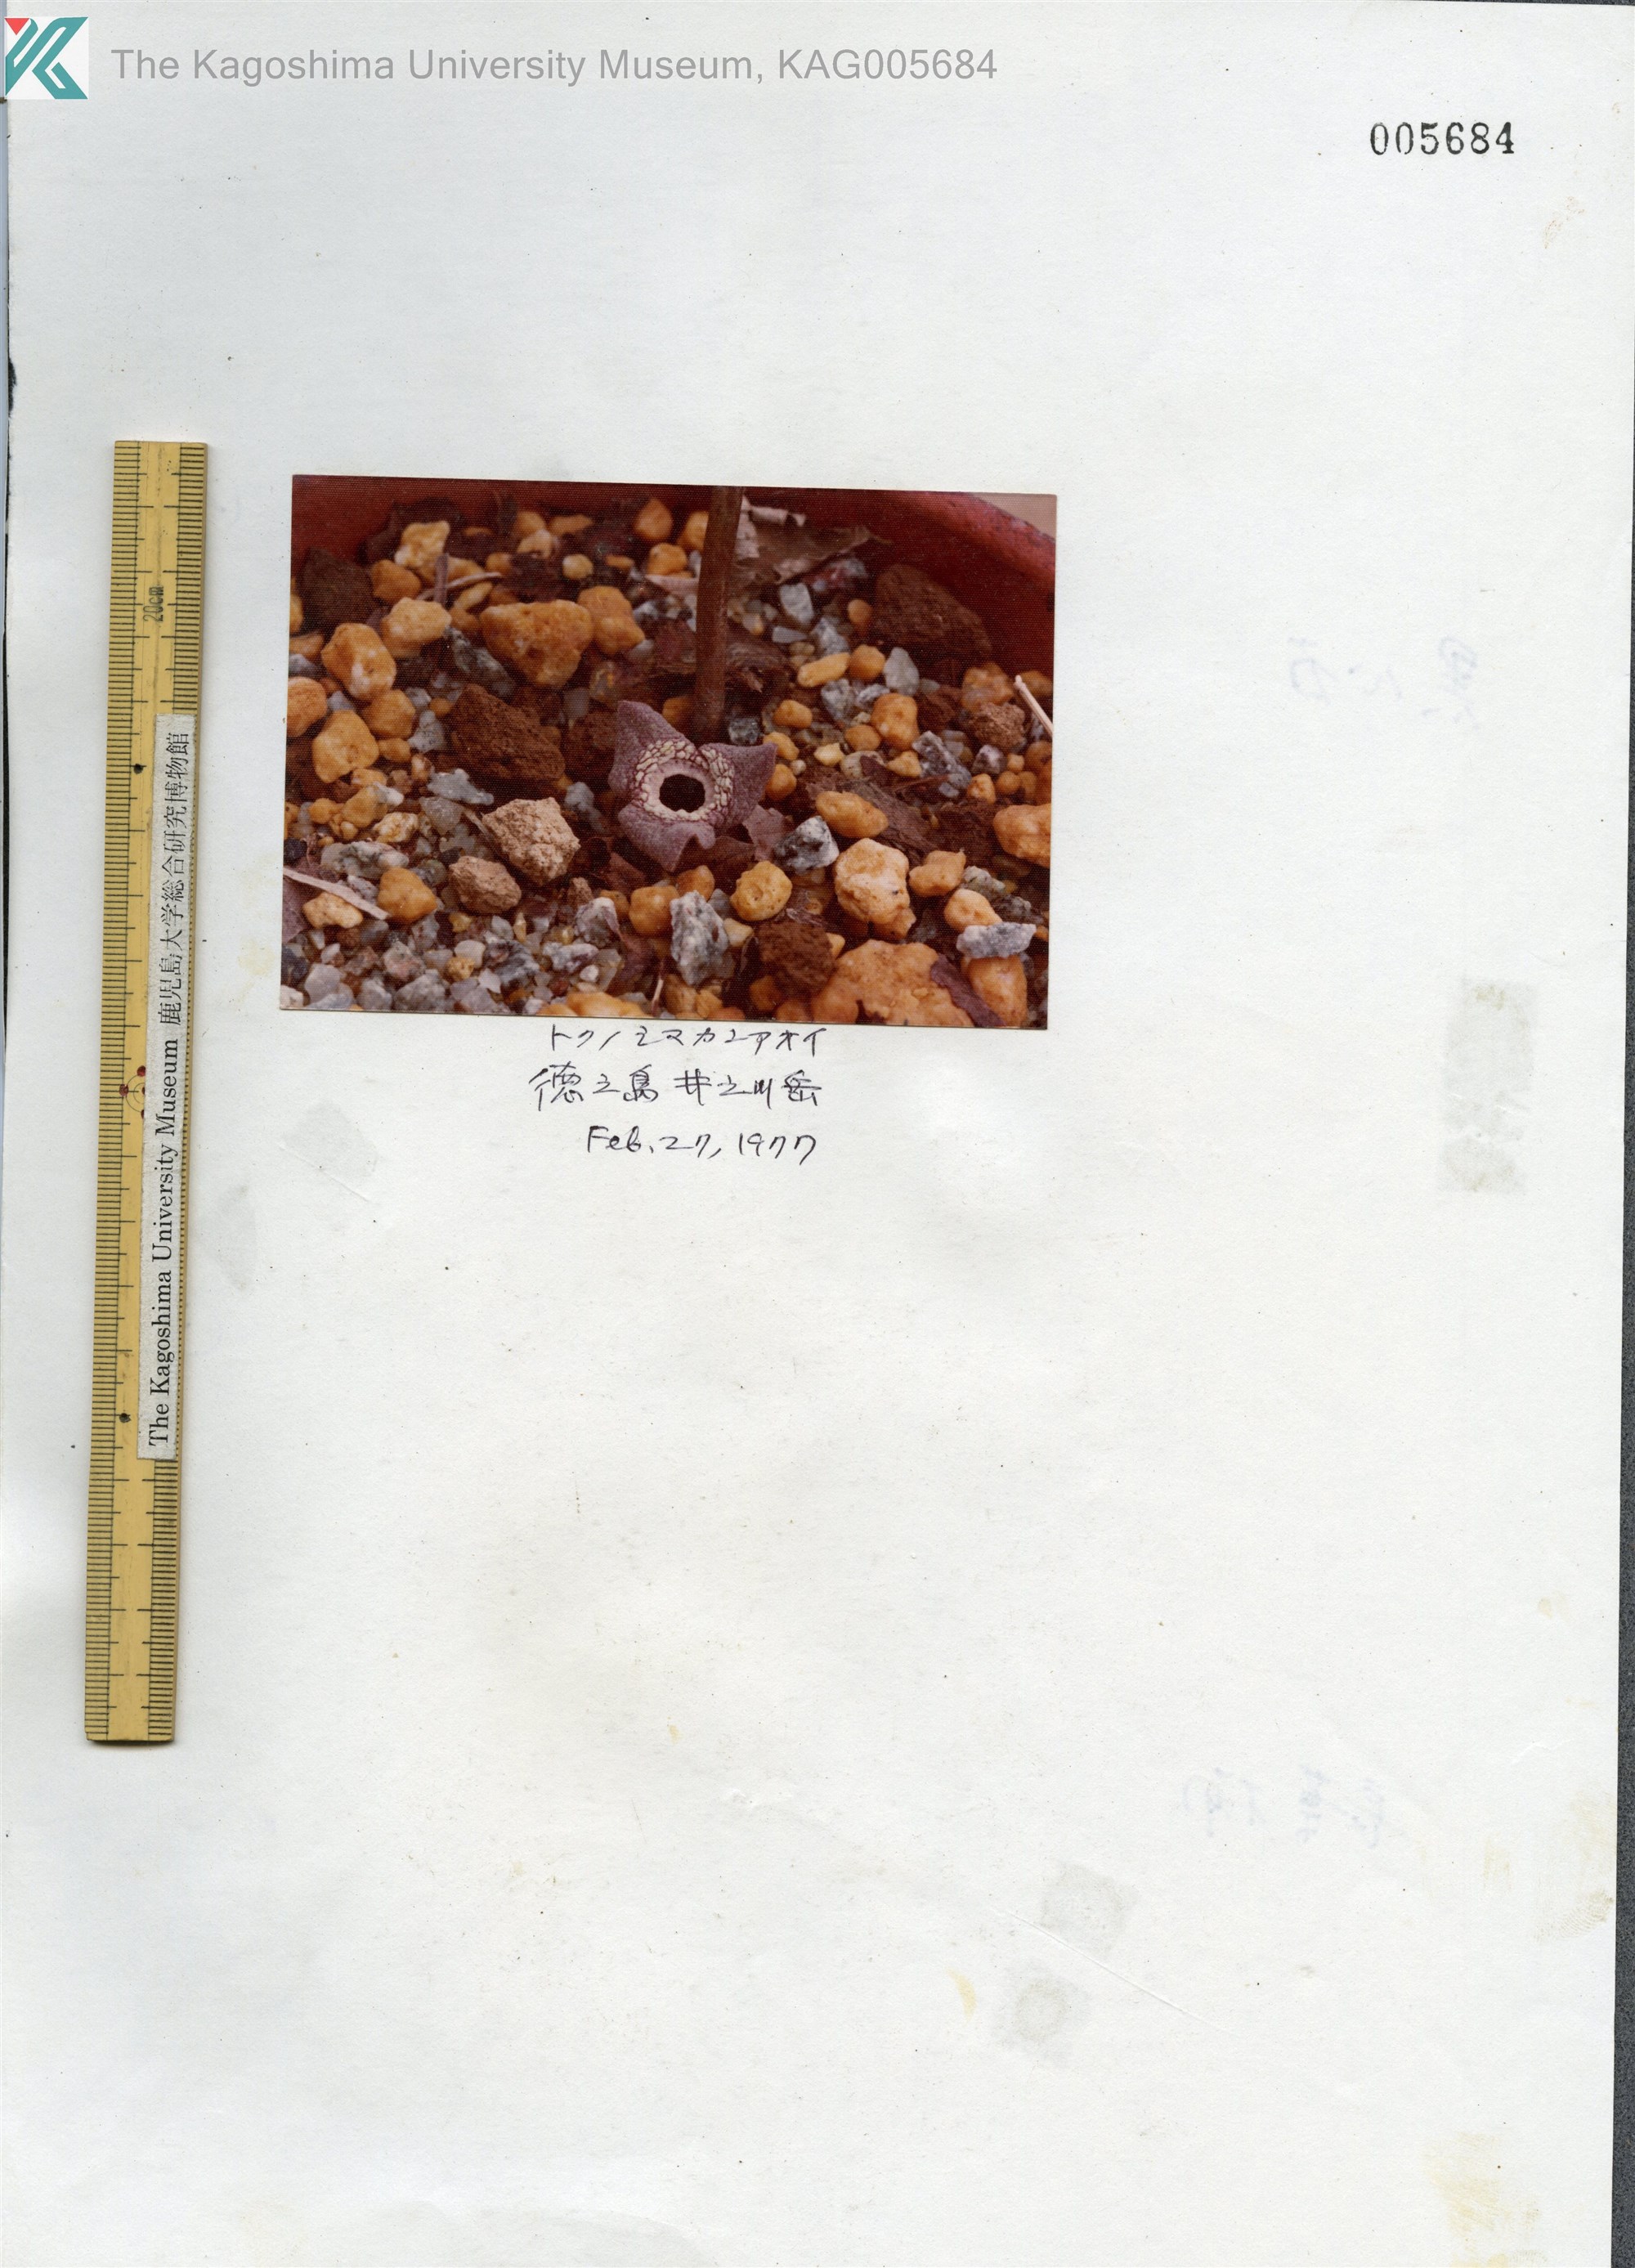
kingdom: Plantae
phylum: Tracheophyta
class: Magnoliopsida
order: Piperales
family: Aristolochiaceae
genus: Asarum
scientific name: Asarum simile
